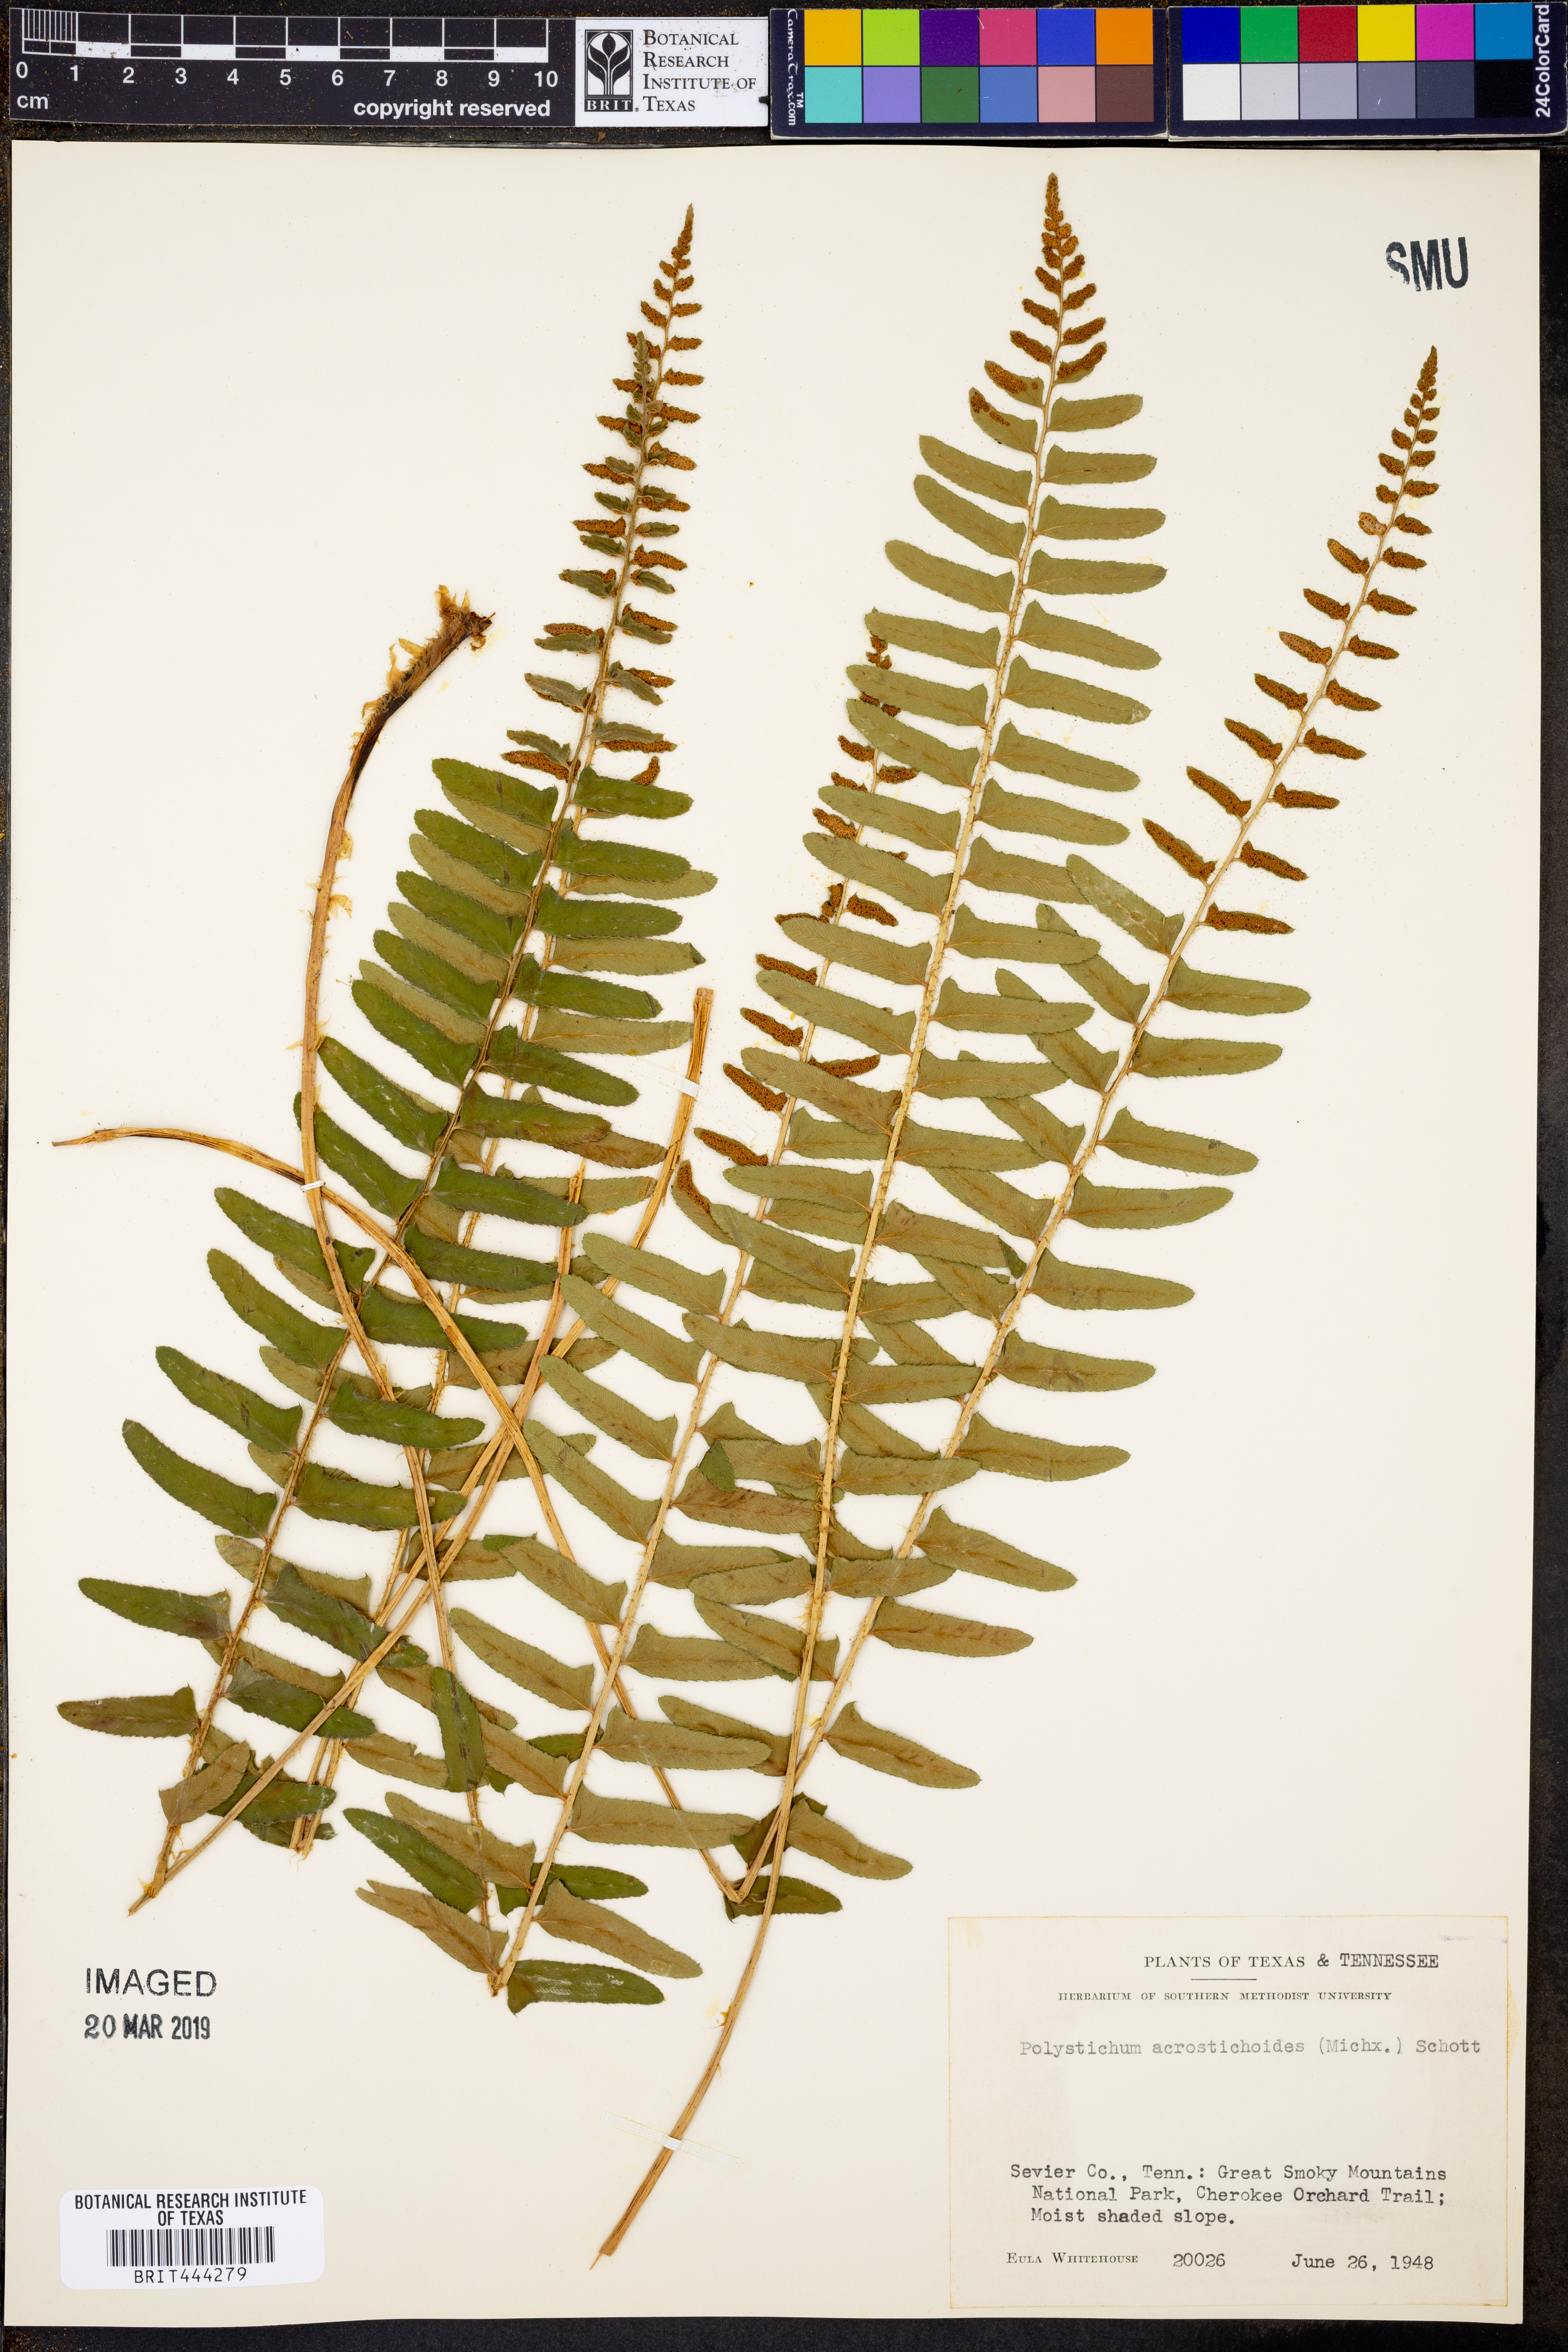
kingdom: Plantae
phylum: Tracheophyta
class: Polypodiopsida
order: Polypodiales
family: Dryopteridaceae
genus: Polystichum
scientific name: Polystichum acrostichoides
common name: Christmas fern
